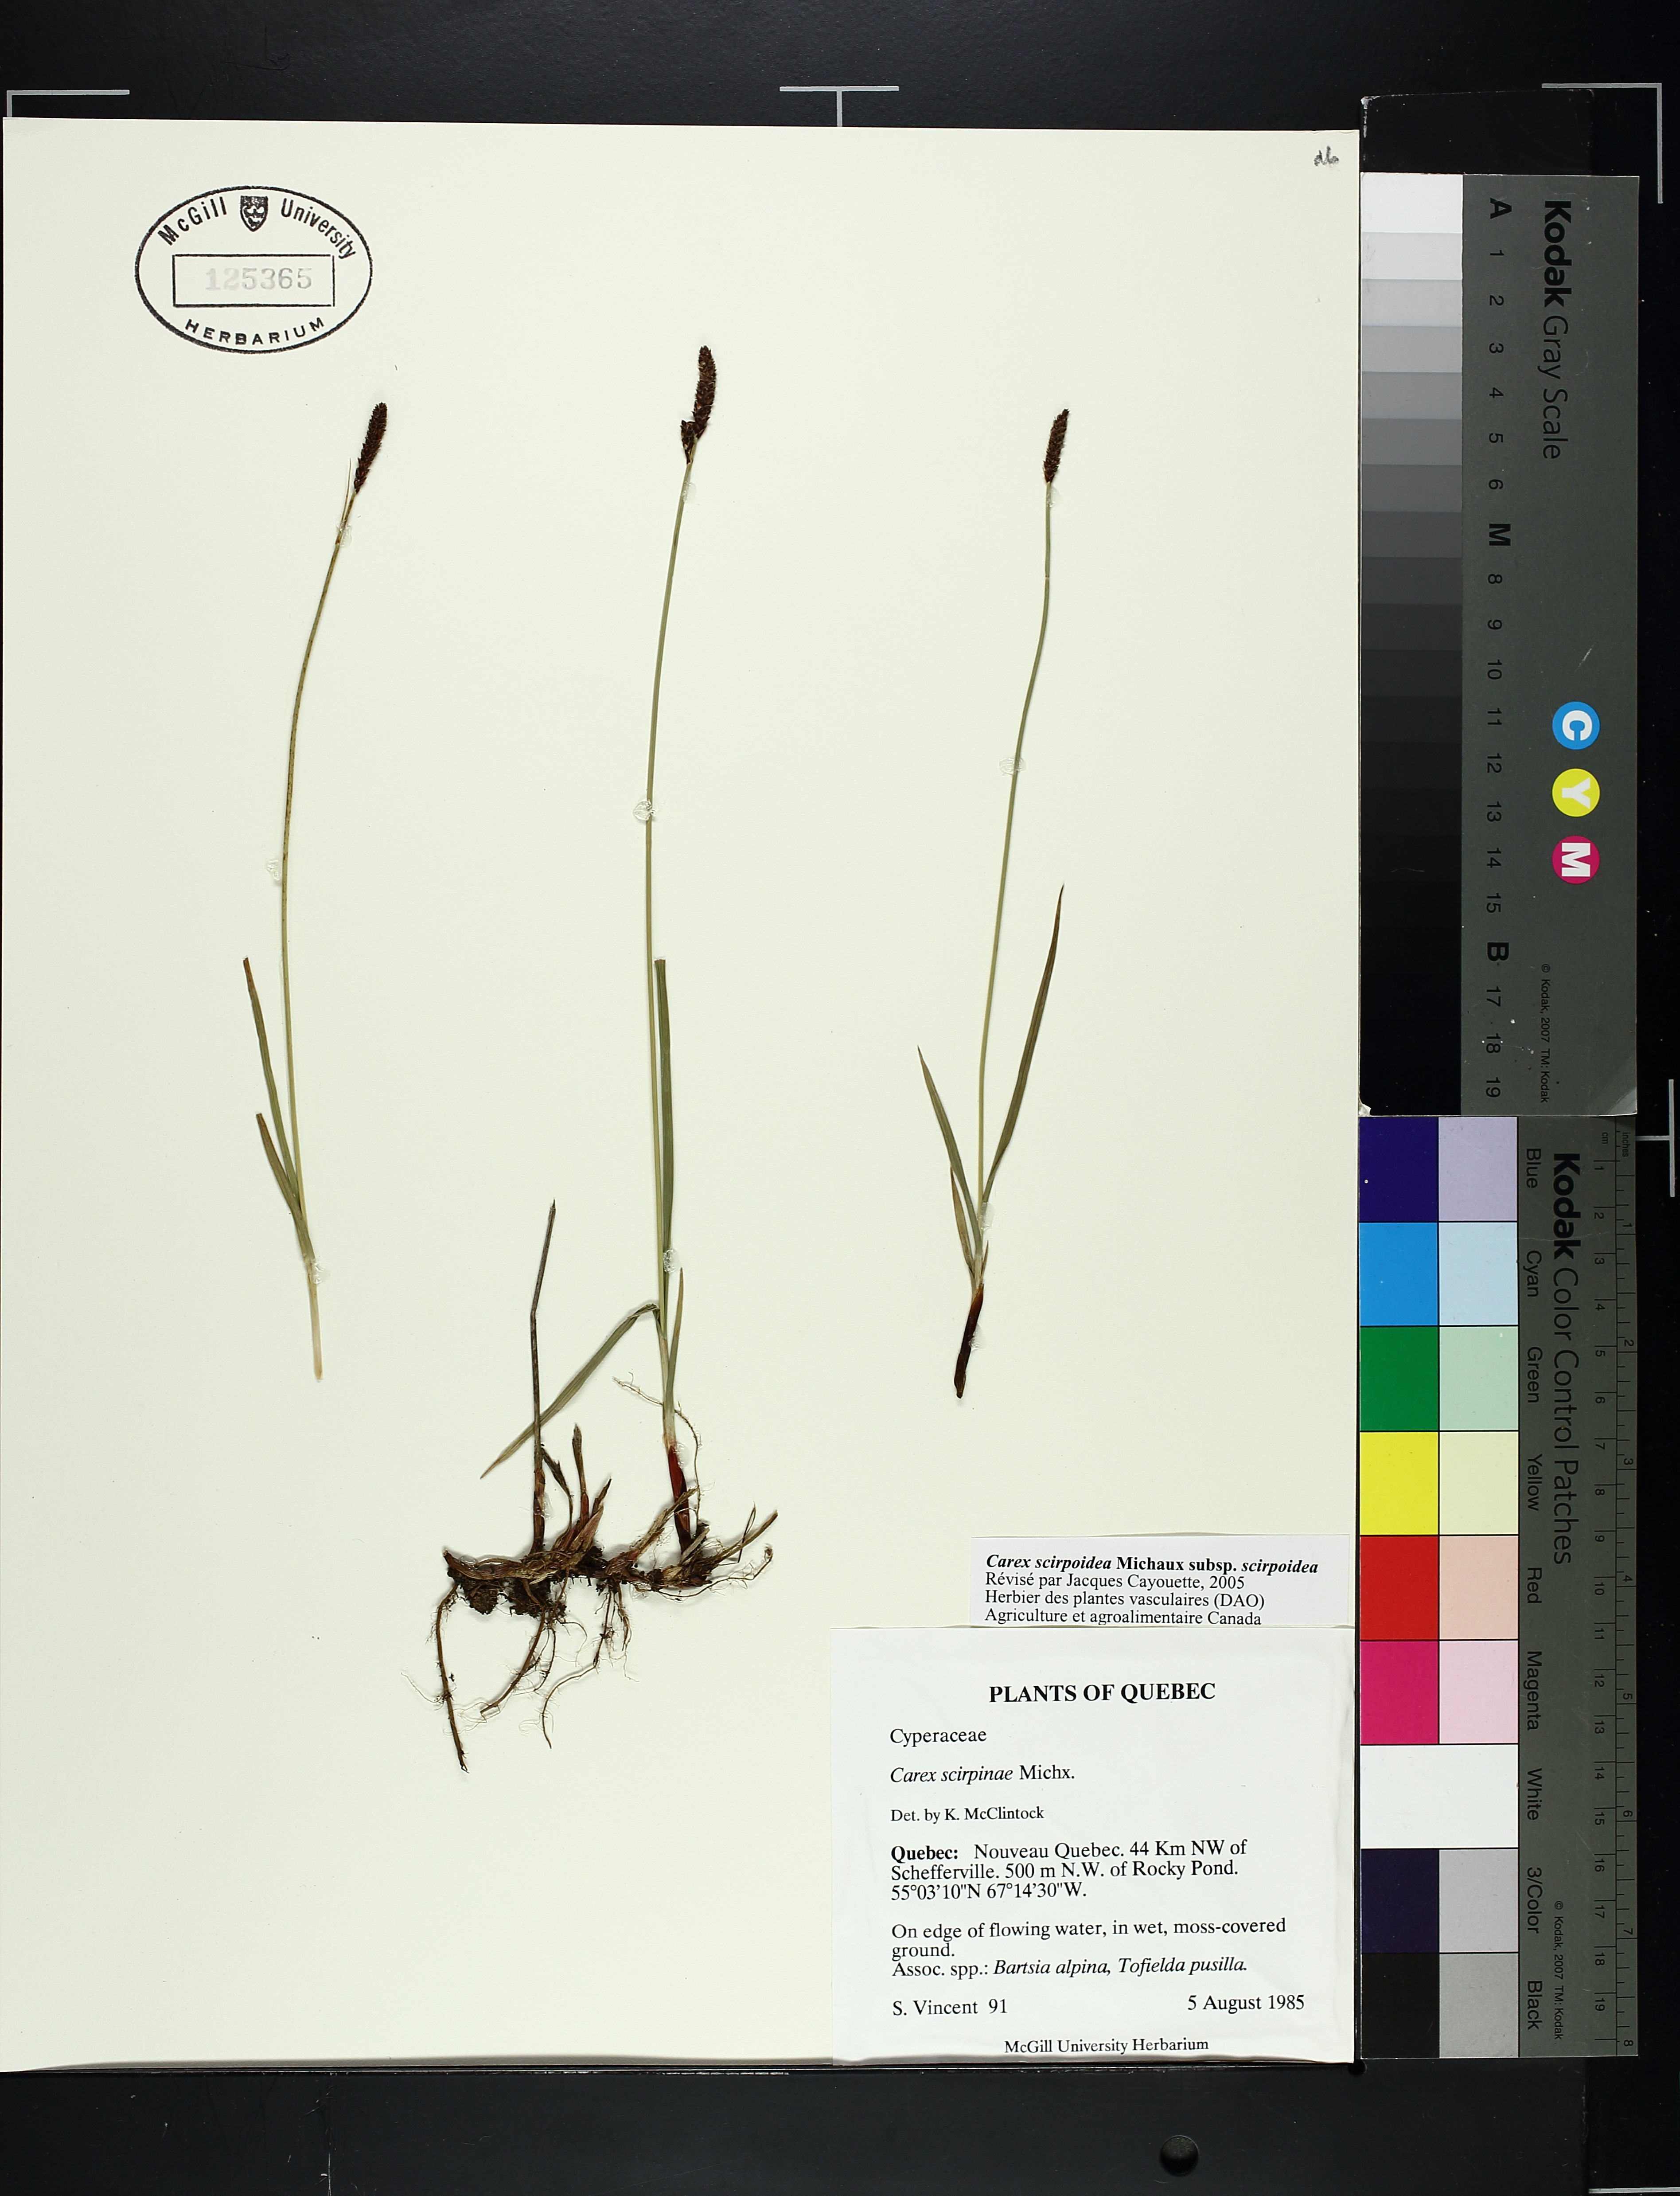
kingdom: Plantae
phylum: Tracheophyta
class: Liliopsida
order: Poales
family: Cyperaceae
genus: Carex
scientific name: Carex scirpoidea
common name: Canada single-spike sedge
